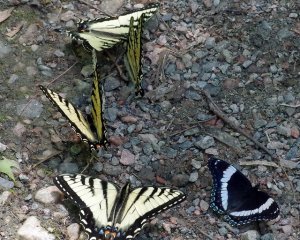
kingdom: Animalia
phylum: Arthropoda
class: Insecta
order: Lepidoptera
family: Papilionidae
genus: Pterourus
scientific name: Pterourus canadensis
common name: Canadian Tiger Swallowtail
